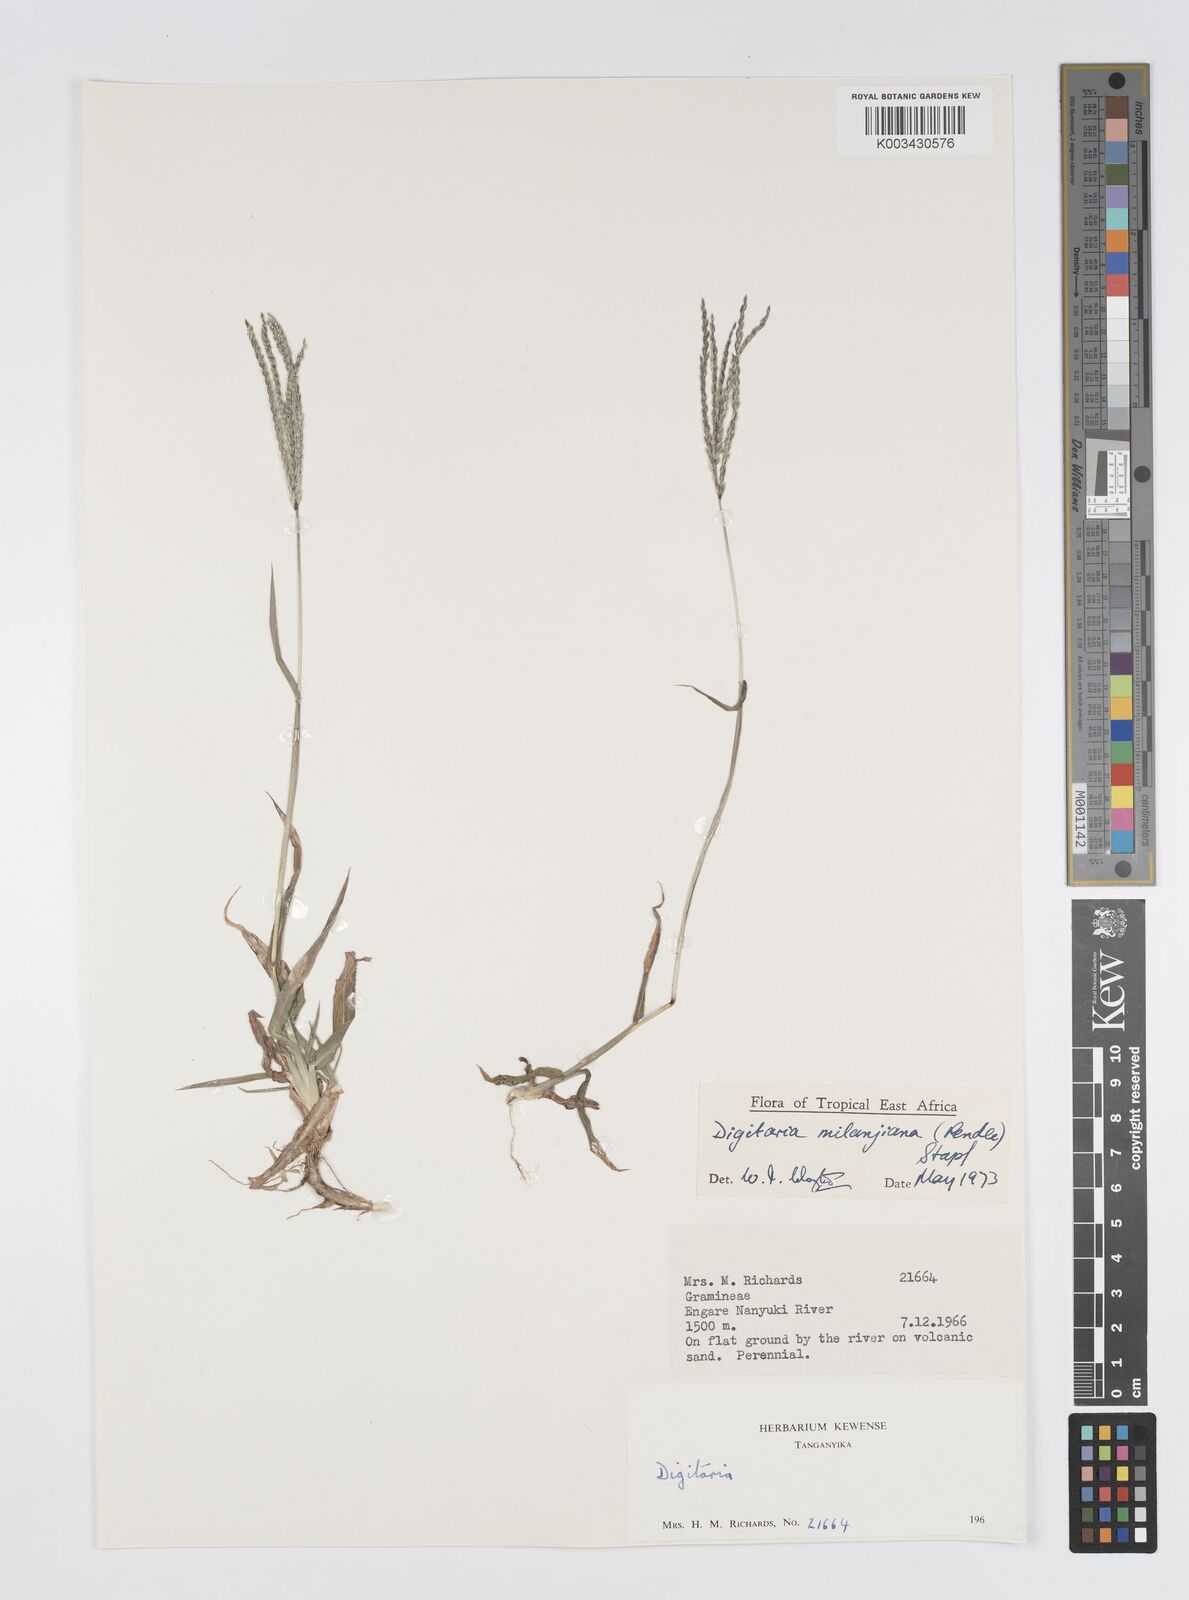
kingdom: Plantae
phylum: Tracheophyta
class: Liliopsida
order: Poales
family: Poaceae
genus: Digitaria
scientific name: Digitaria milanjiana
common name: Madagascar crabgrass
